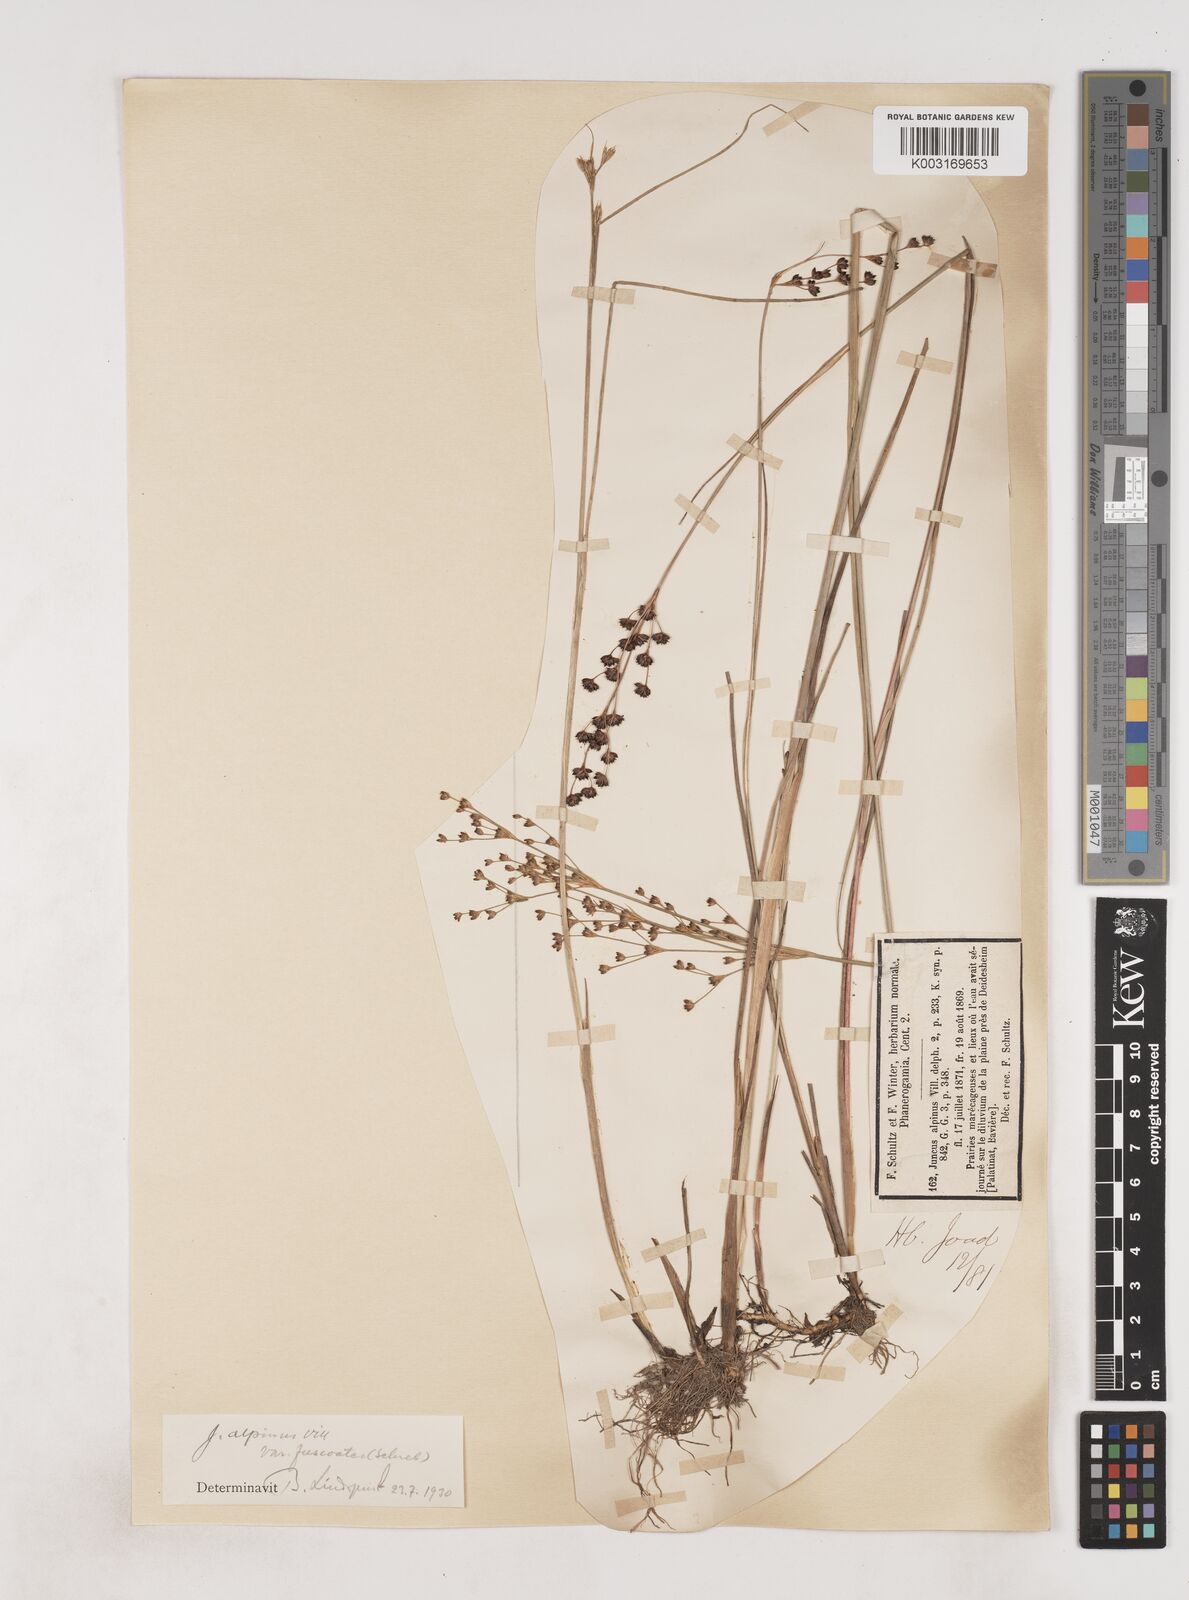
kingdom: Plantae
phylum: Tracheophyta
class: Liliopsida
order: Poales
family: Juncaceae
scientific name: Juncaceae
